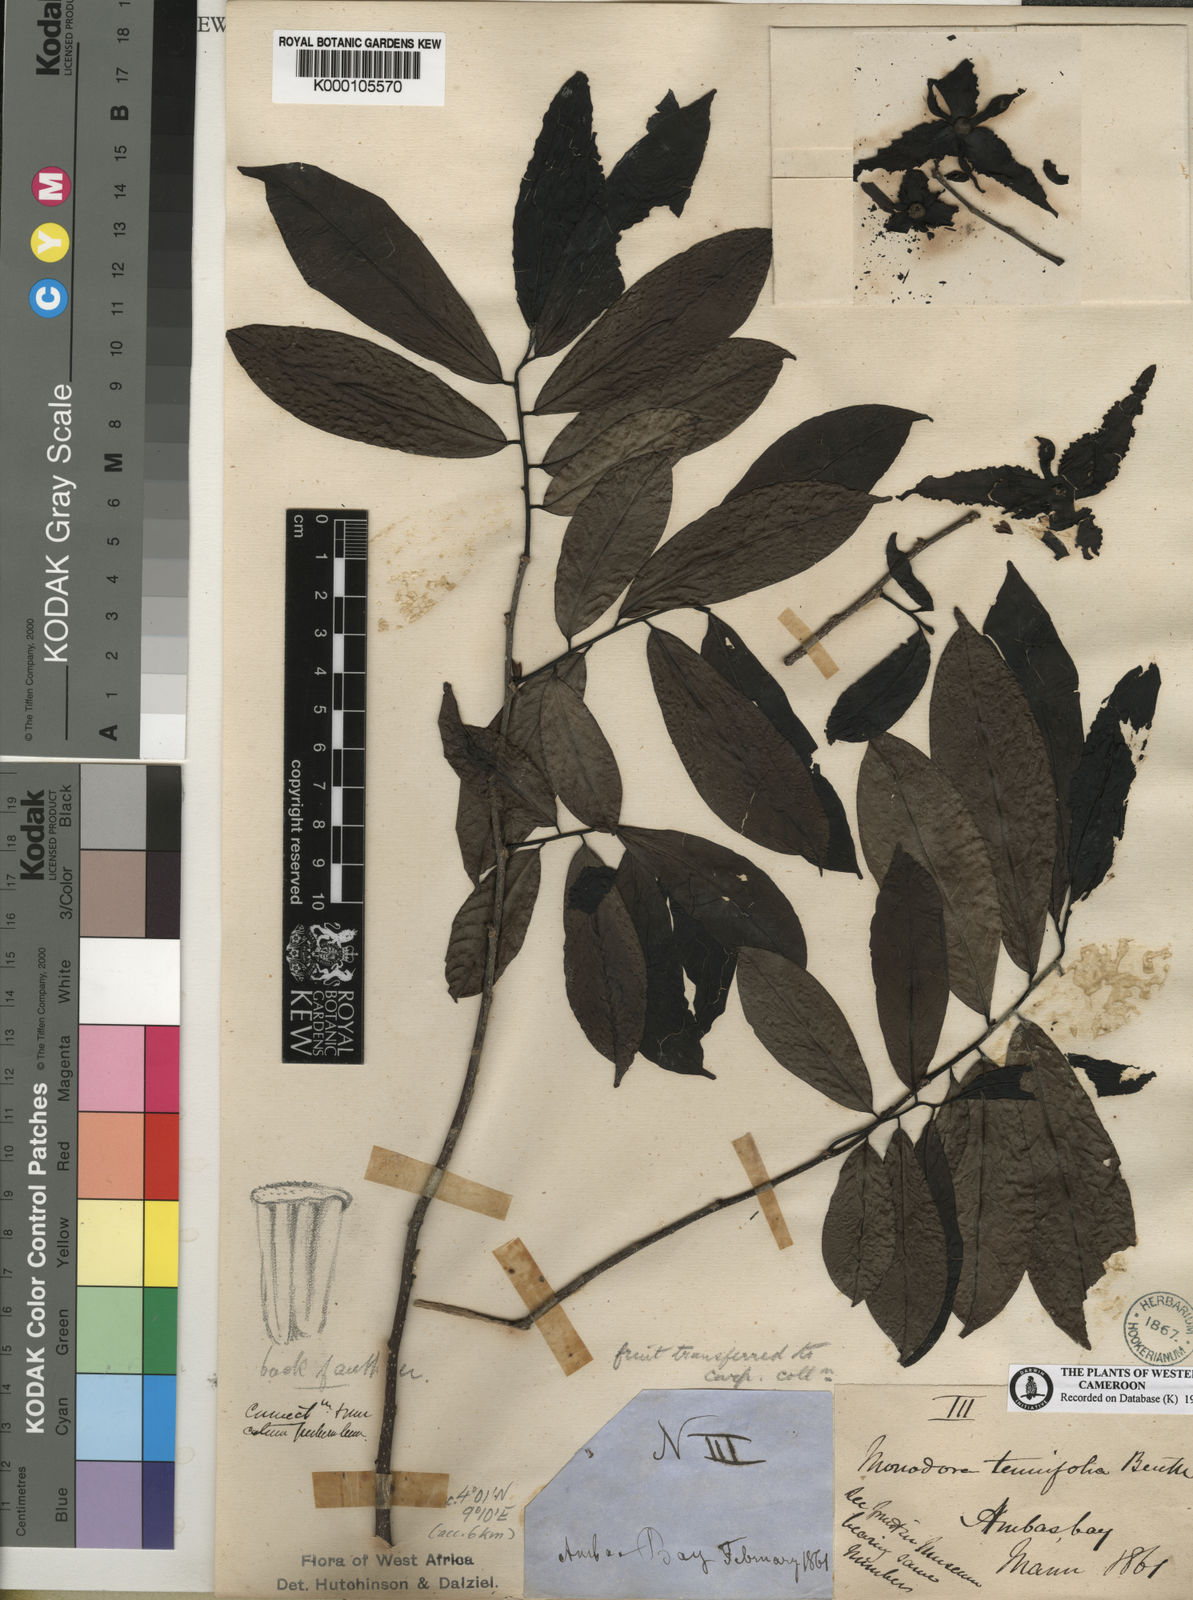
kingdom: Plantae
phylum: Tracheophyta
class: Magnoliopsida
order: Magnoliales
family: Annonaceae
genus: Monodora
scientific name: Monodora tenuifolia
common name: Orchidtree
